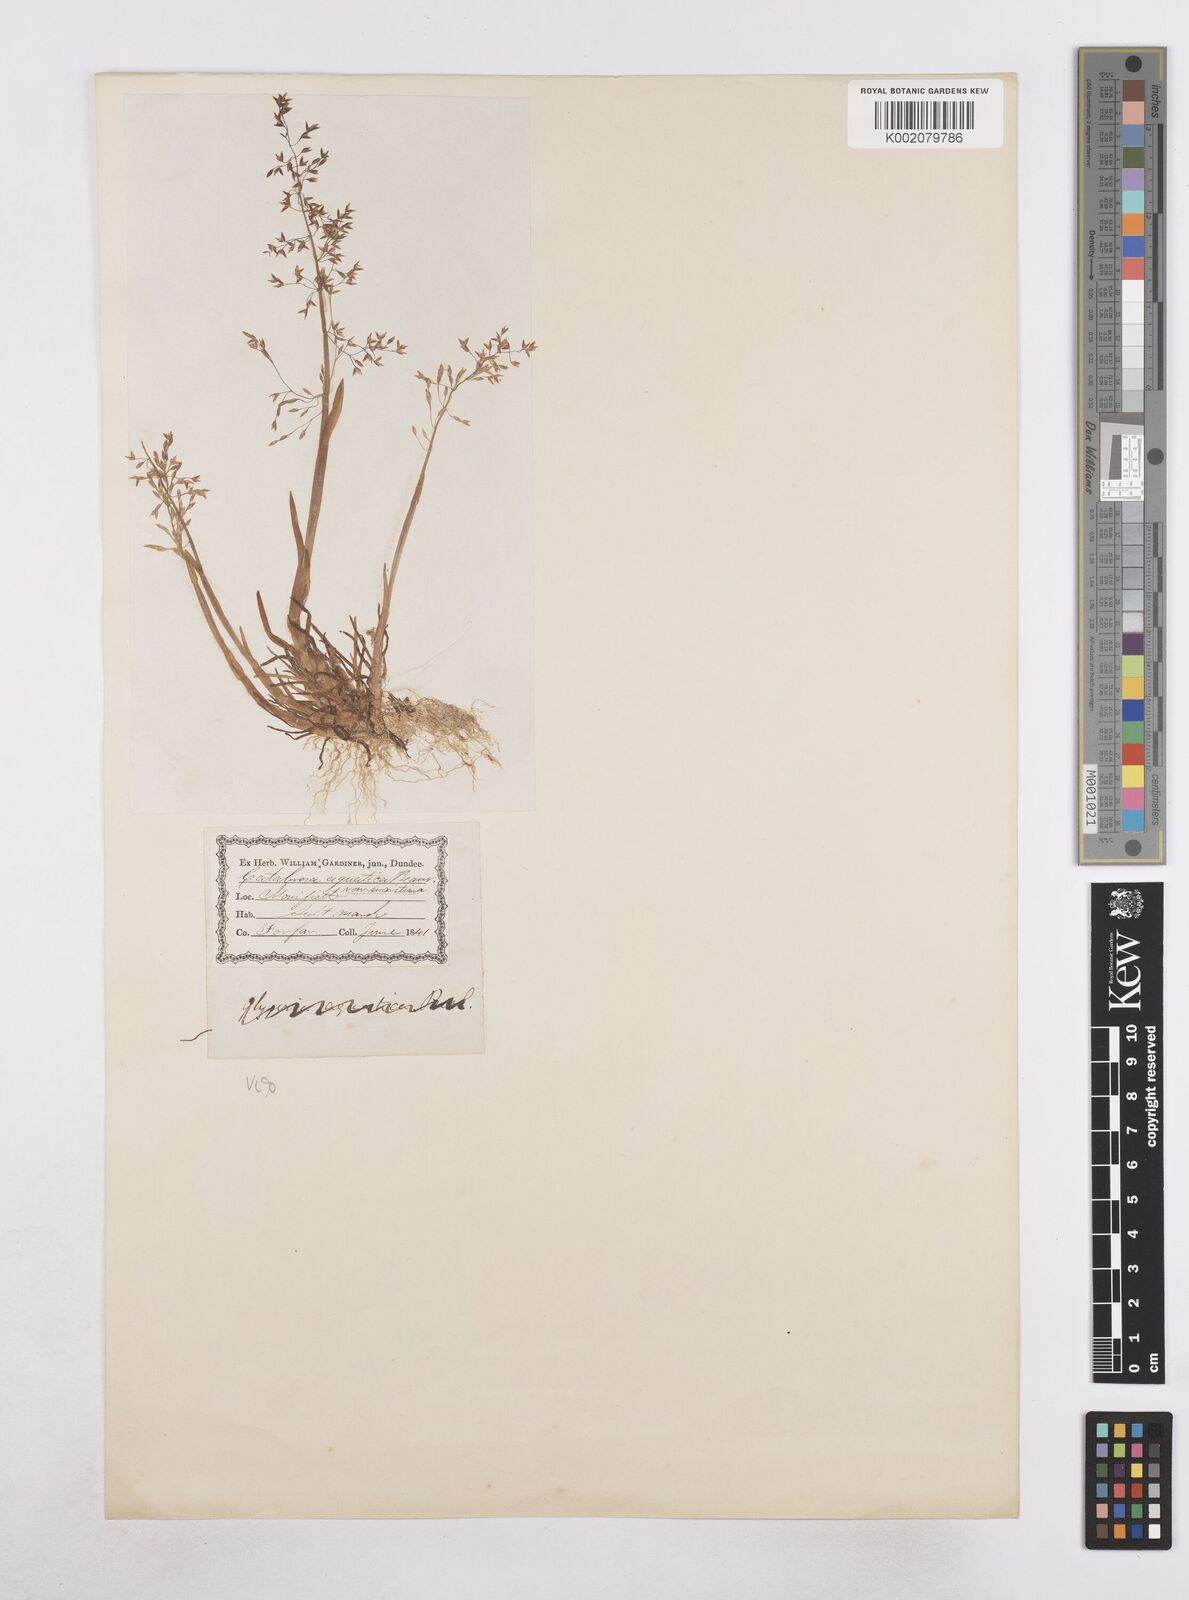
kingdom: Plantae
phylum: Tracheophyta
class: Liliopsida
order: Poales
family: Poaceae
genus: Catabrosa
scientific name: Catabrosa aquatica
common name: Whorl-grass
